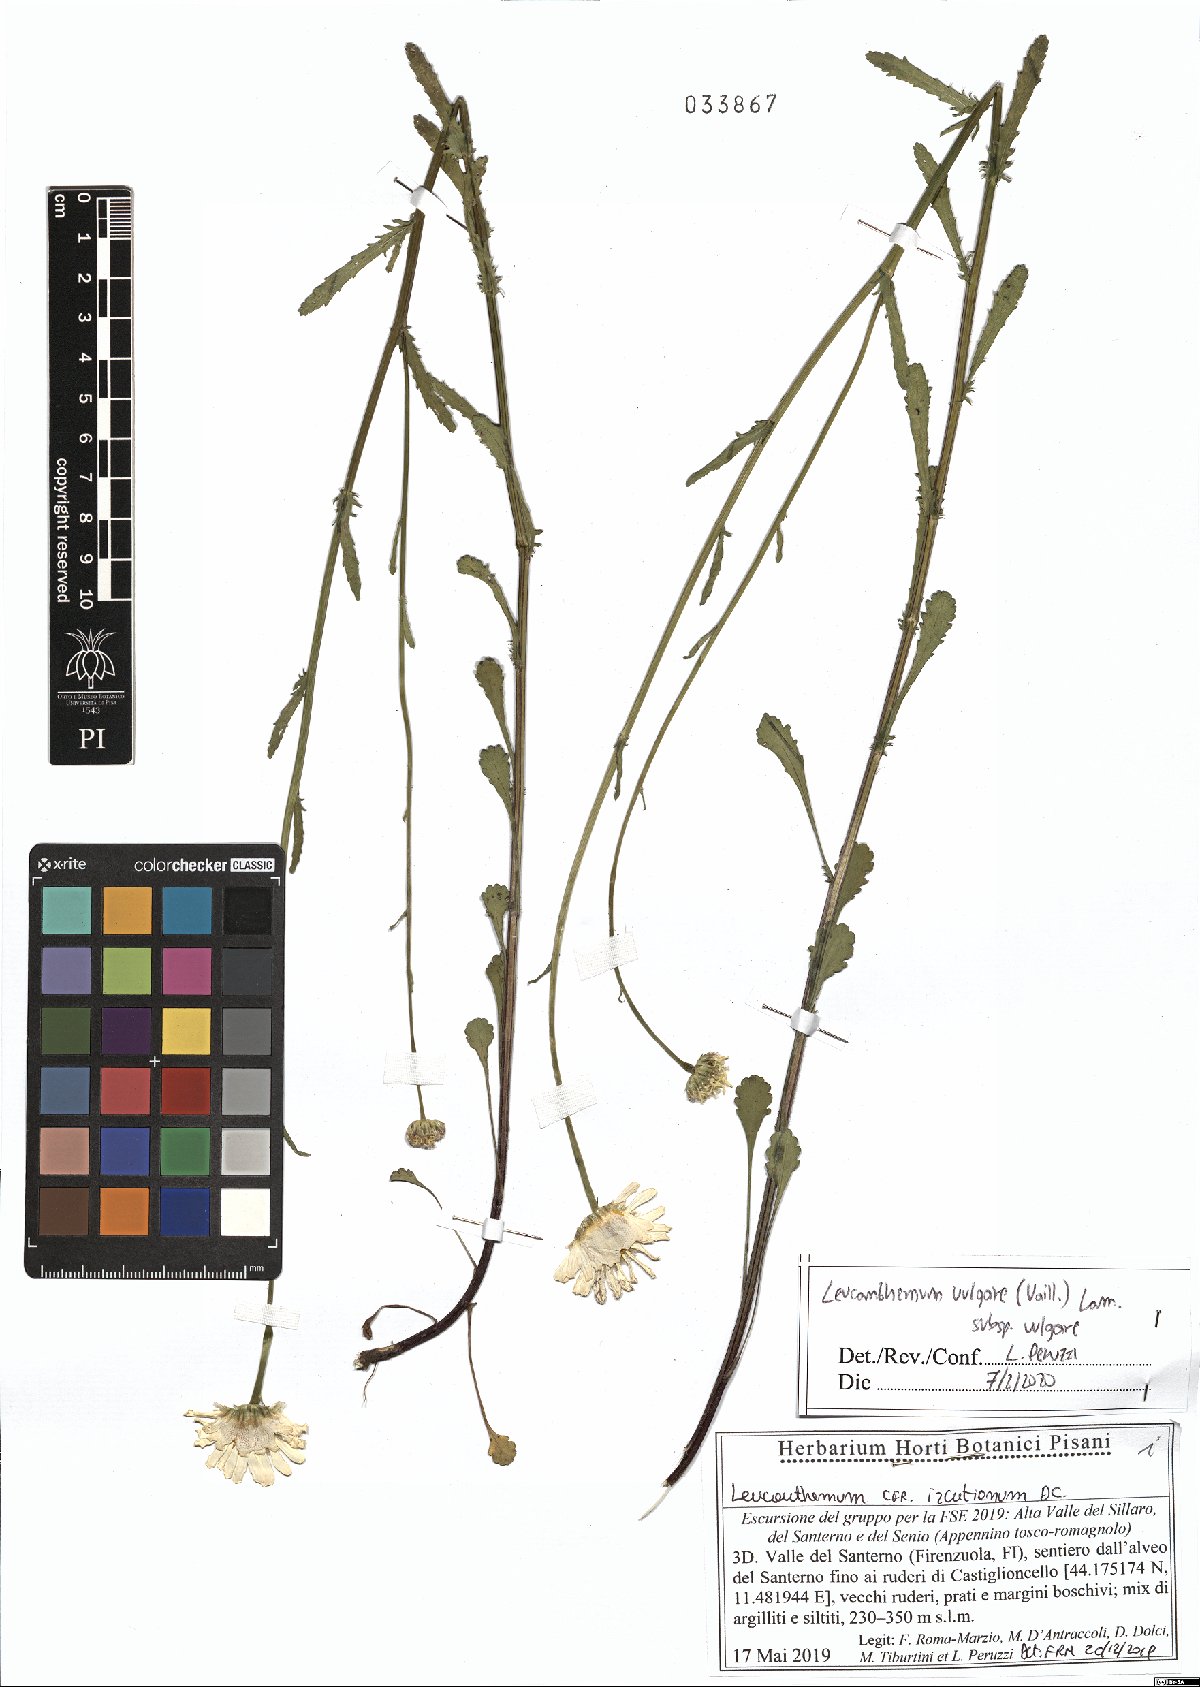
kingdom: Plantae
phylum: Tracheophyta
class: Magnoliopsida
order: Asterales
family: Asteraceae
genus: Leucanthemum
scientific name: Leucanthemum vulgare
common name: Oxeye daisy
